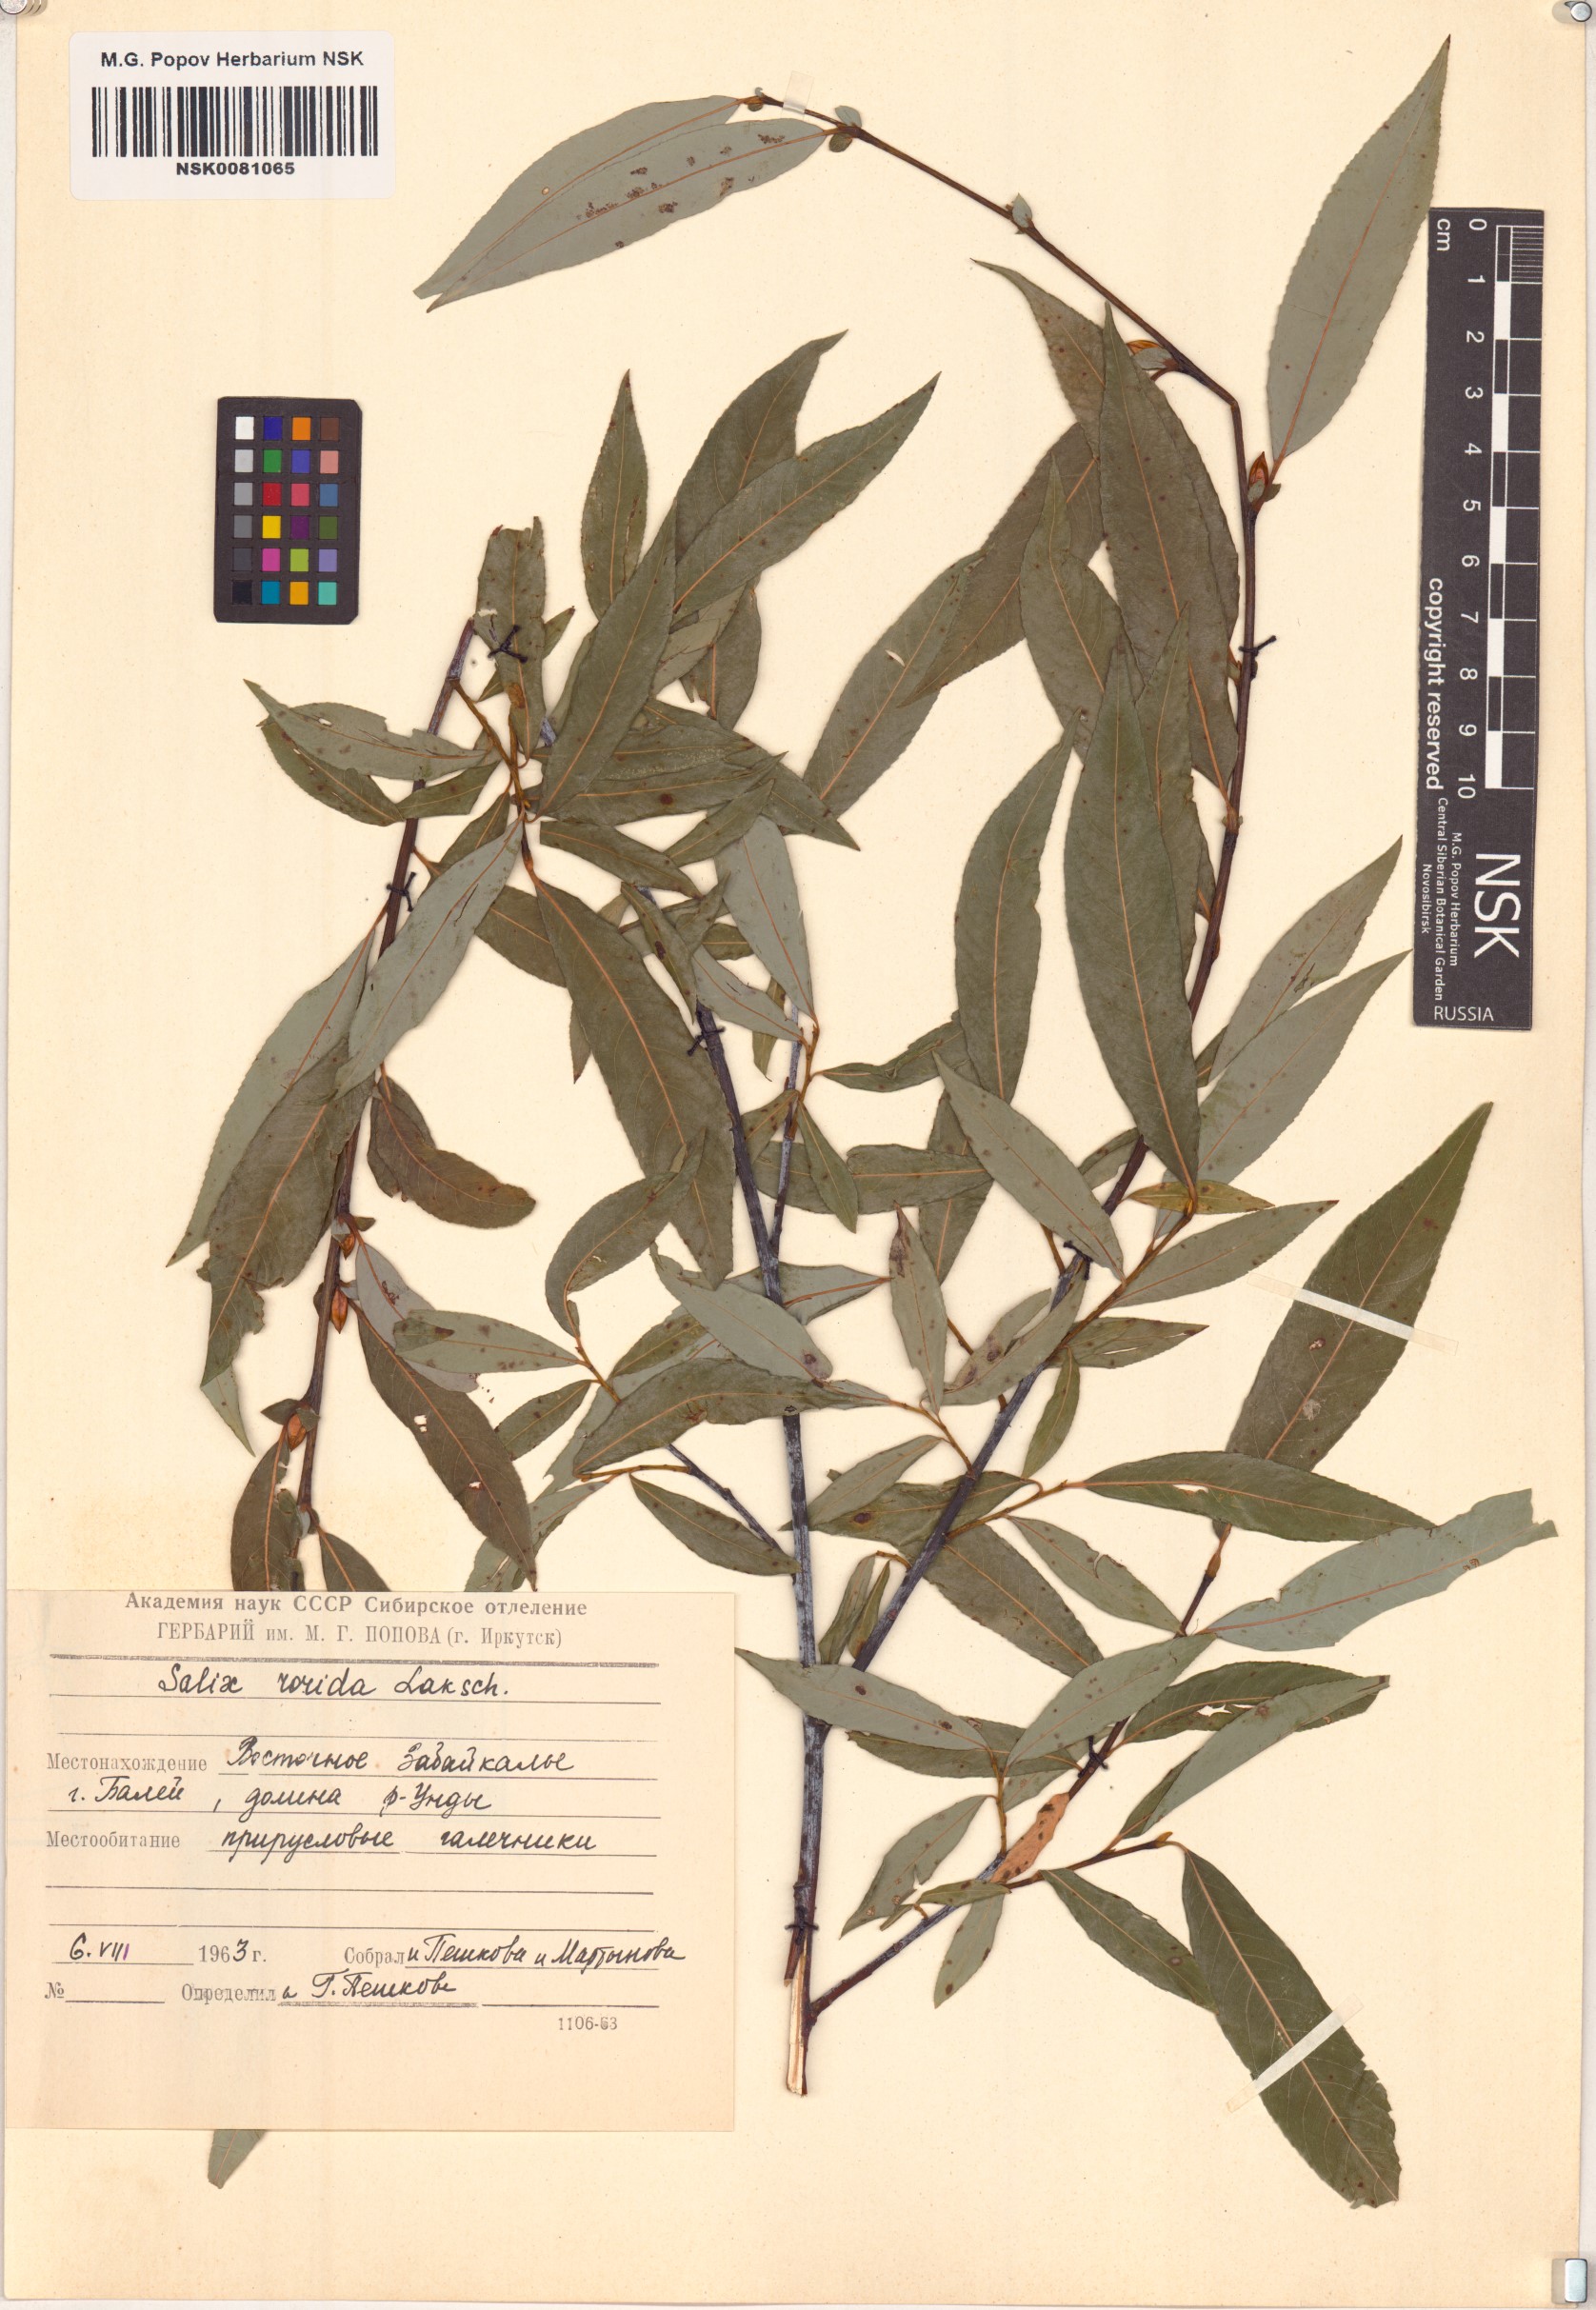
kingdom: Plantae
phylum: Tracheophyta
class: Magnoliopsida
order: Malpighiales
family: Salicaceae
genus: Salix
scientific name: Salix rorida
